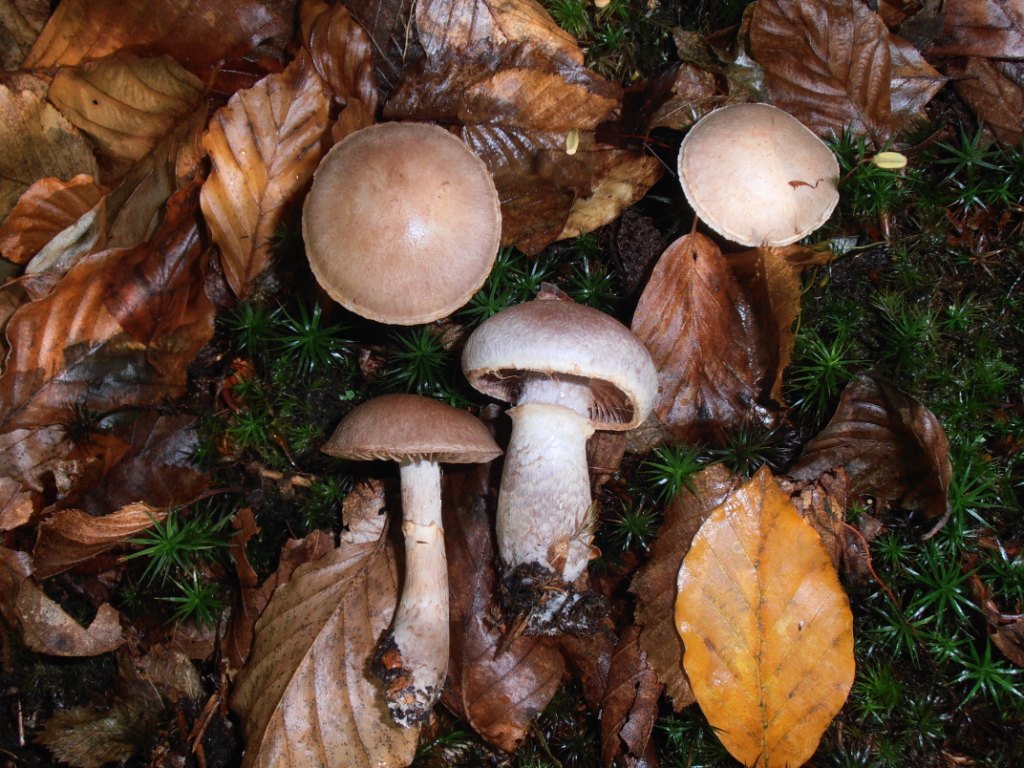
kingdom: Fungi
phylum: Basidiomycota
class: Agaricomycetes
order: Agaricales
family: Cortinariaceae
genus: Cortinarius
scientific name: Cortinarius torvus
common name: champignonagtig slørhat
